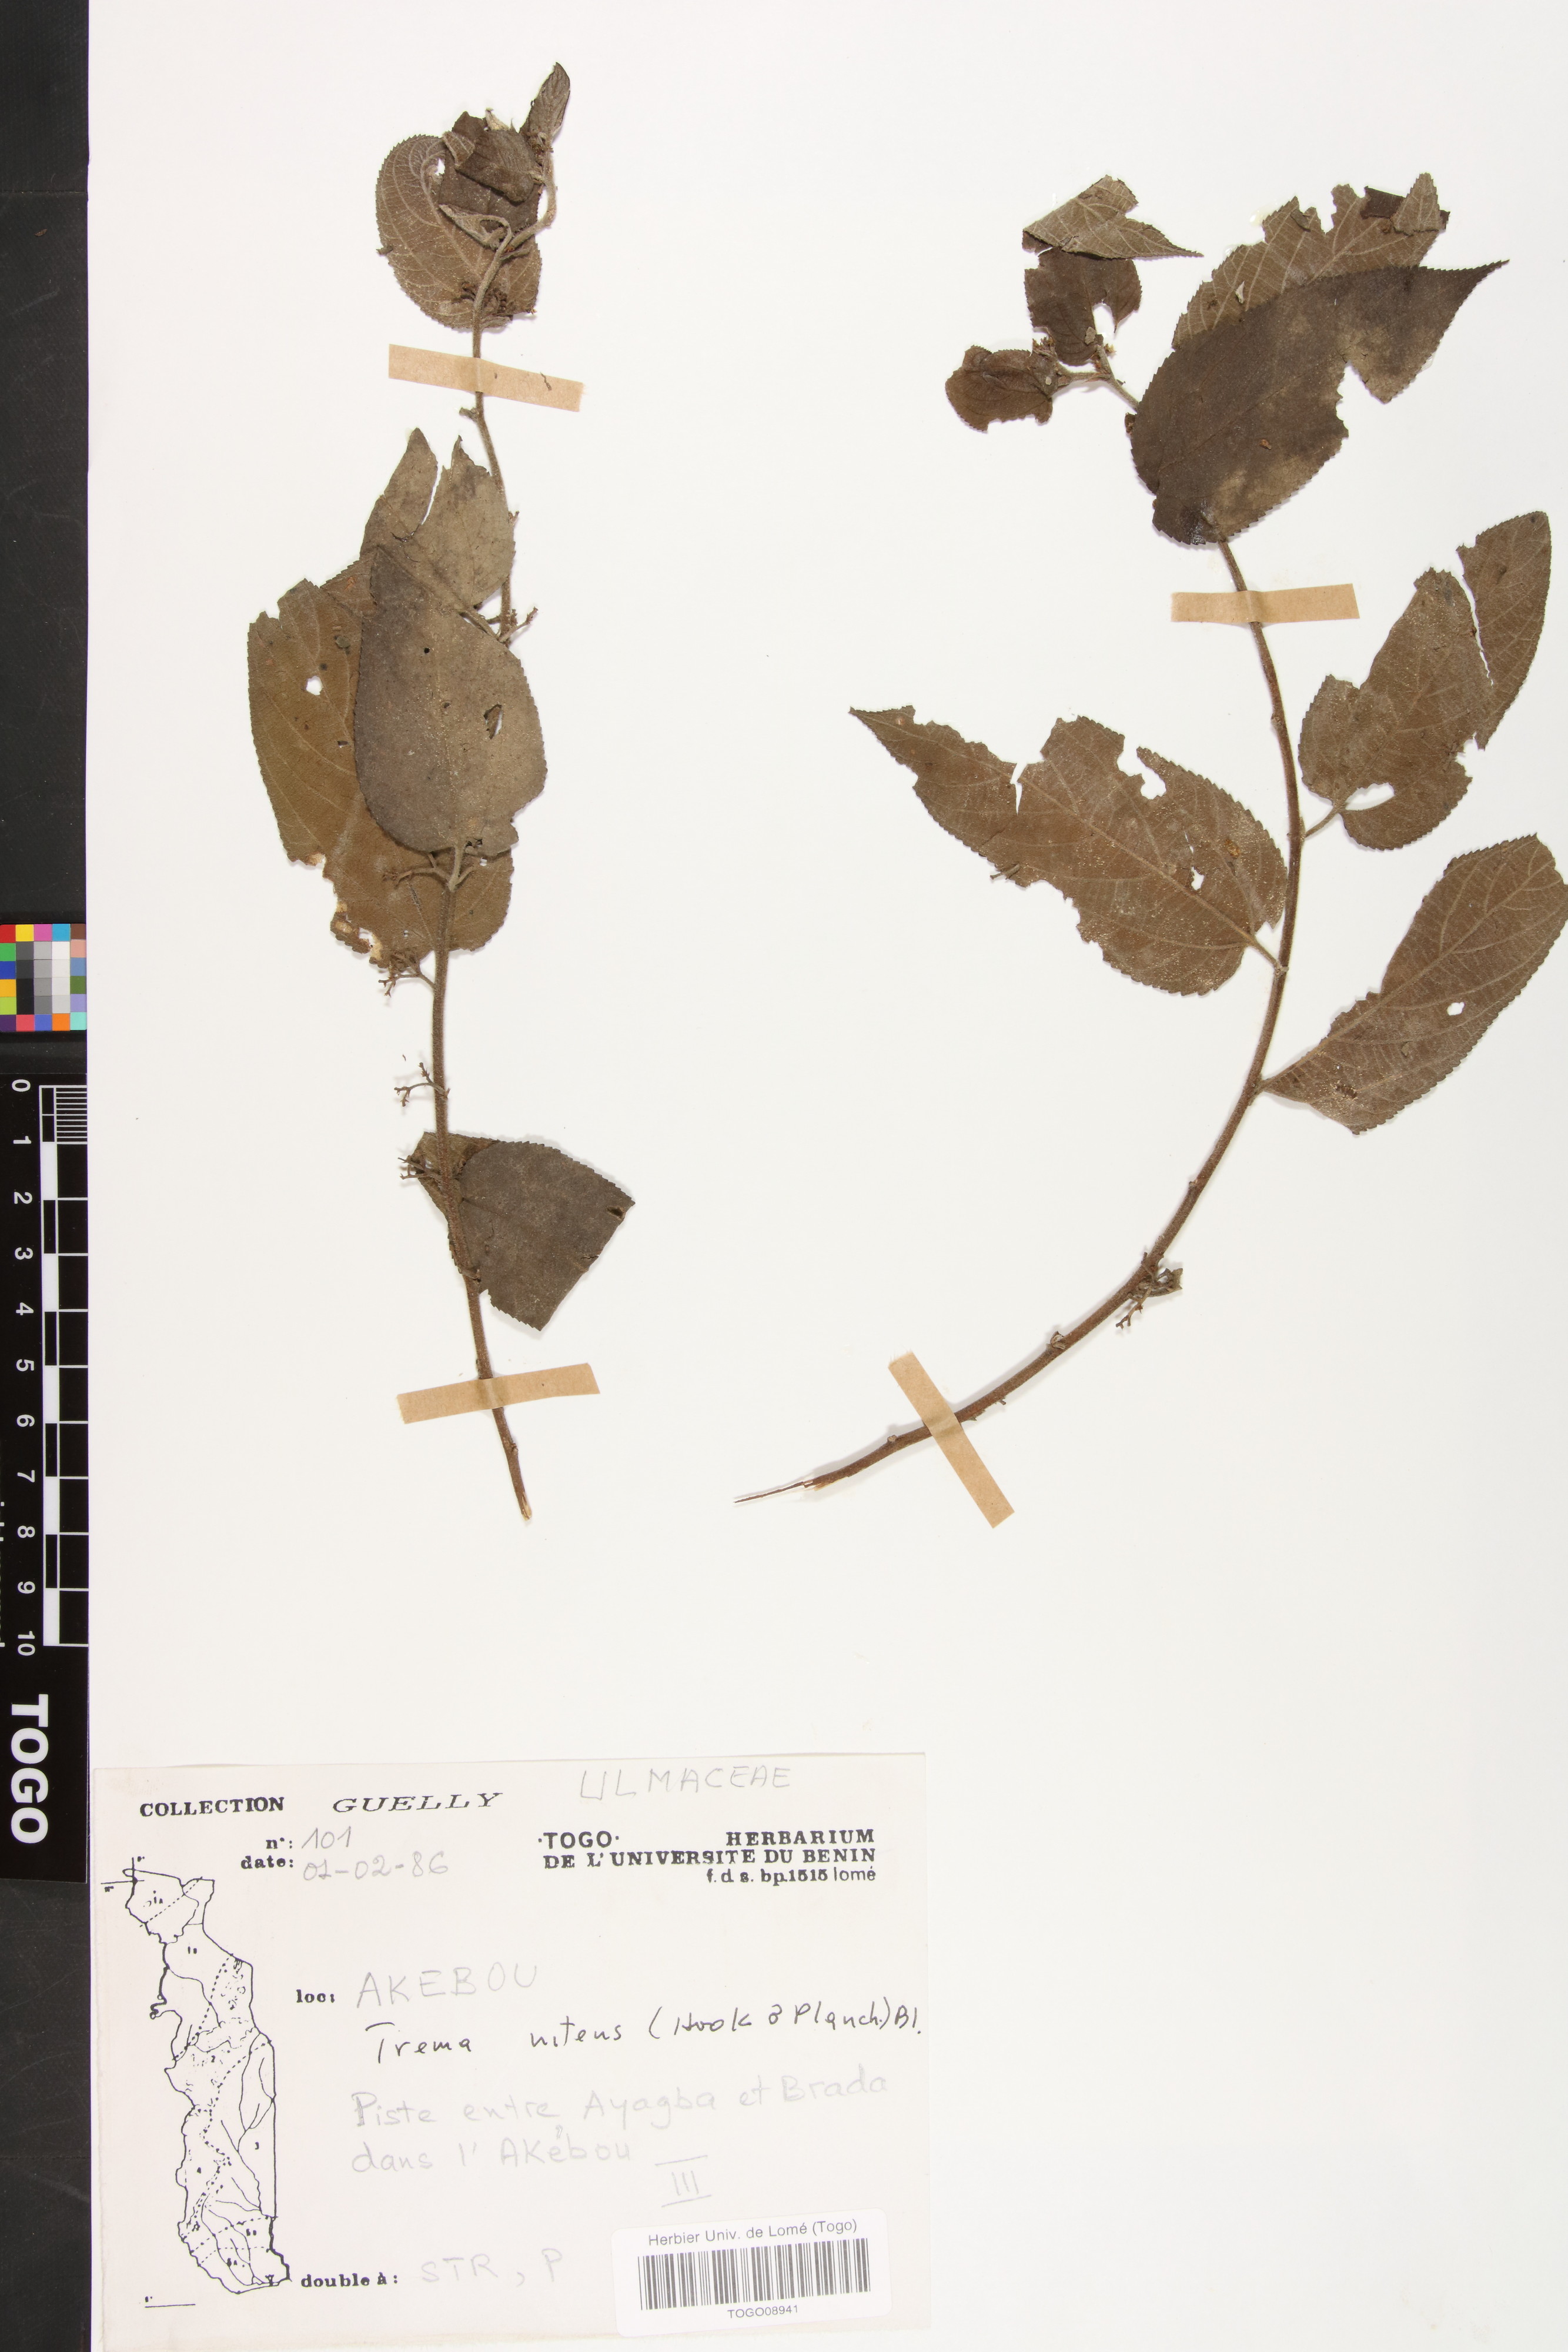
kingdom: Plantae
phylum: Tracheophyta
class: Magnoliopsida
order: Rosales
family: Cannabaceae
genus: Trema
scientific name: Trema orientale
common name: Indian charcoal tree
